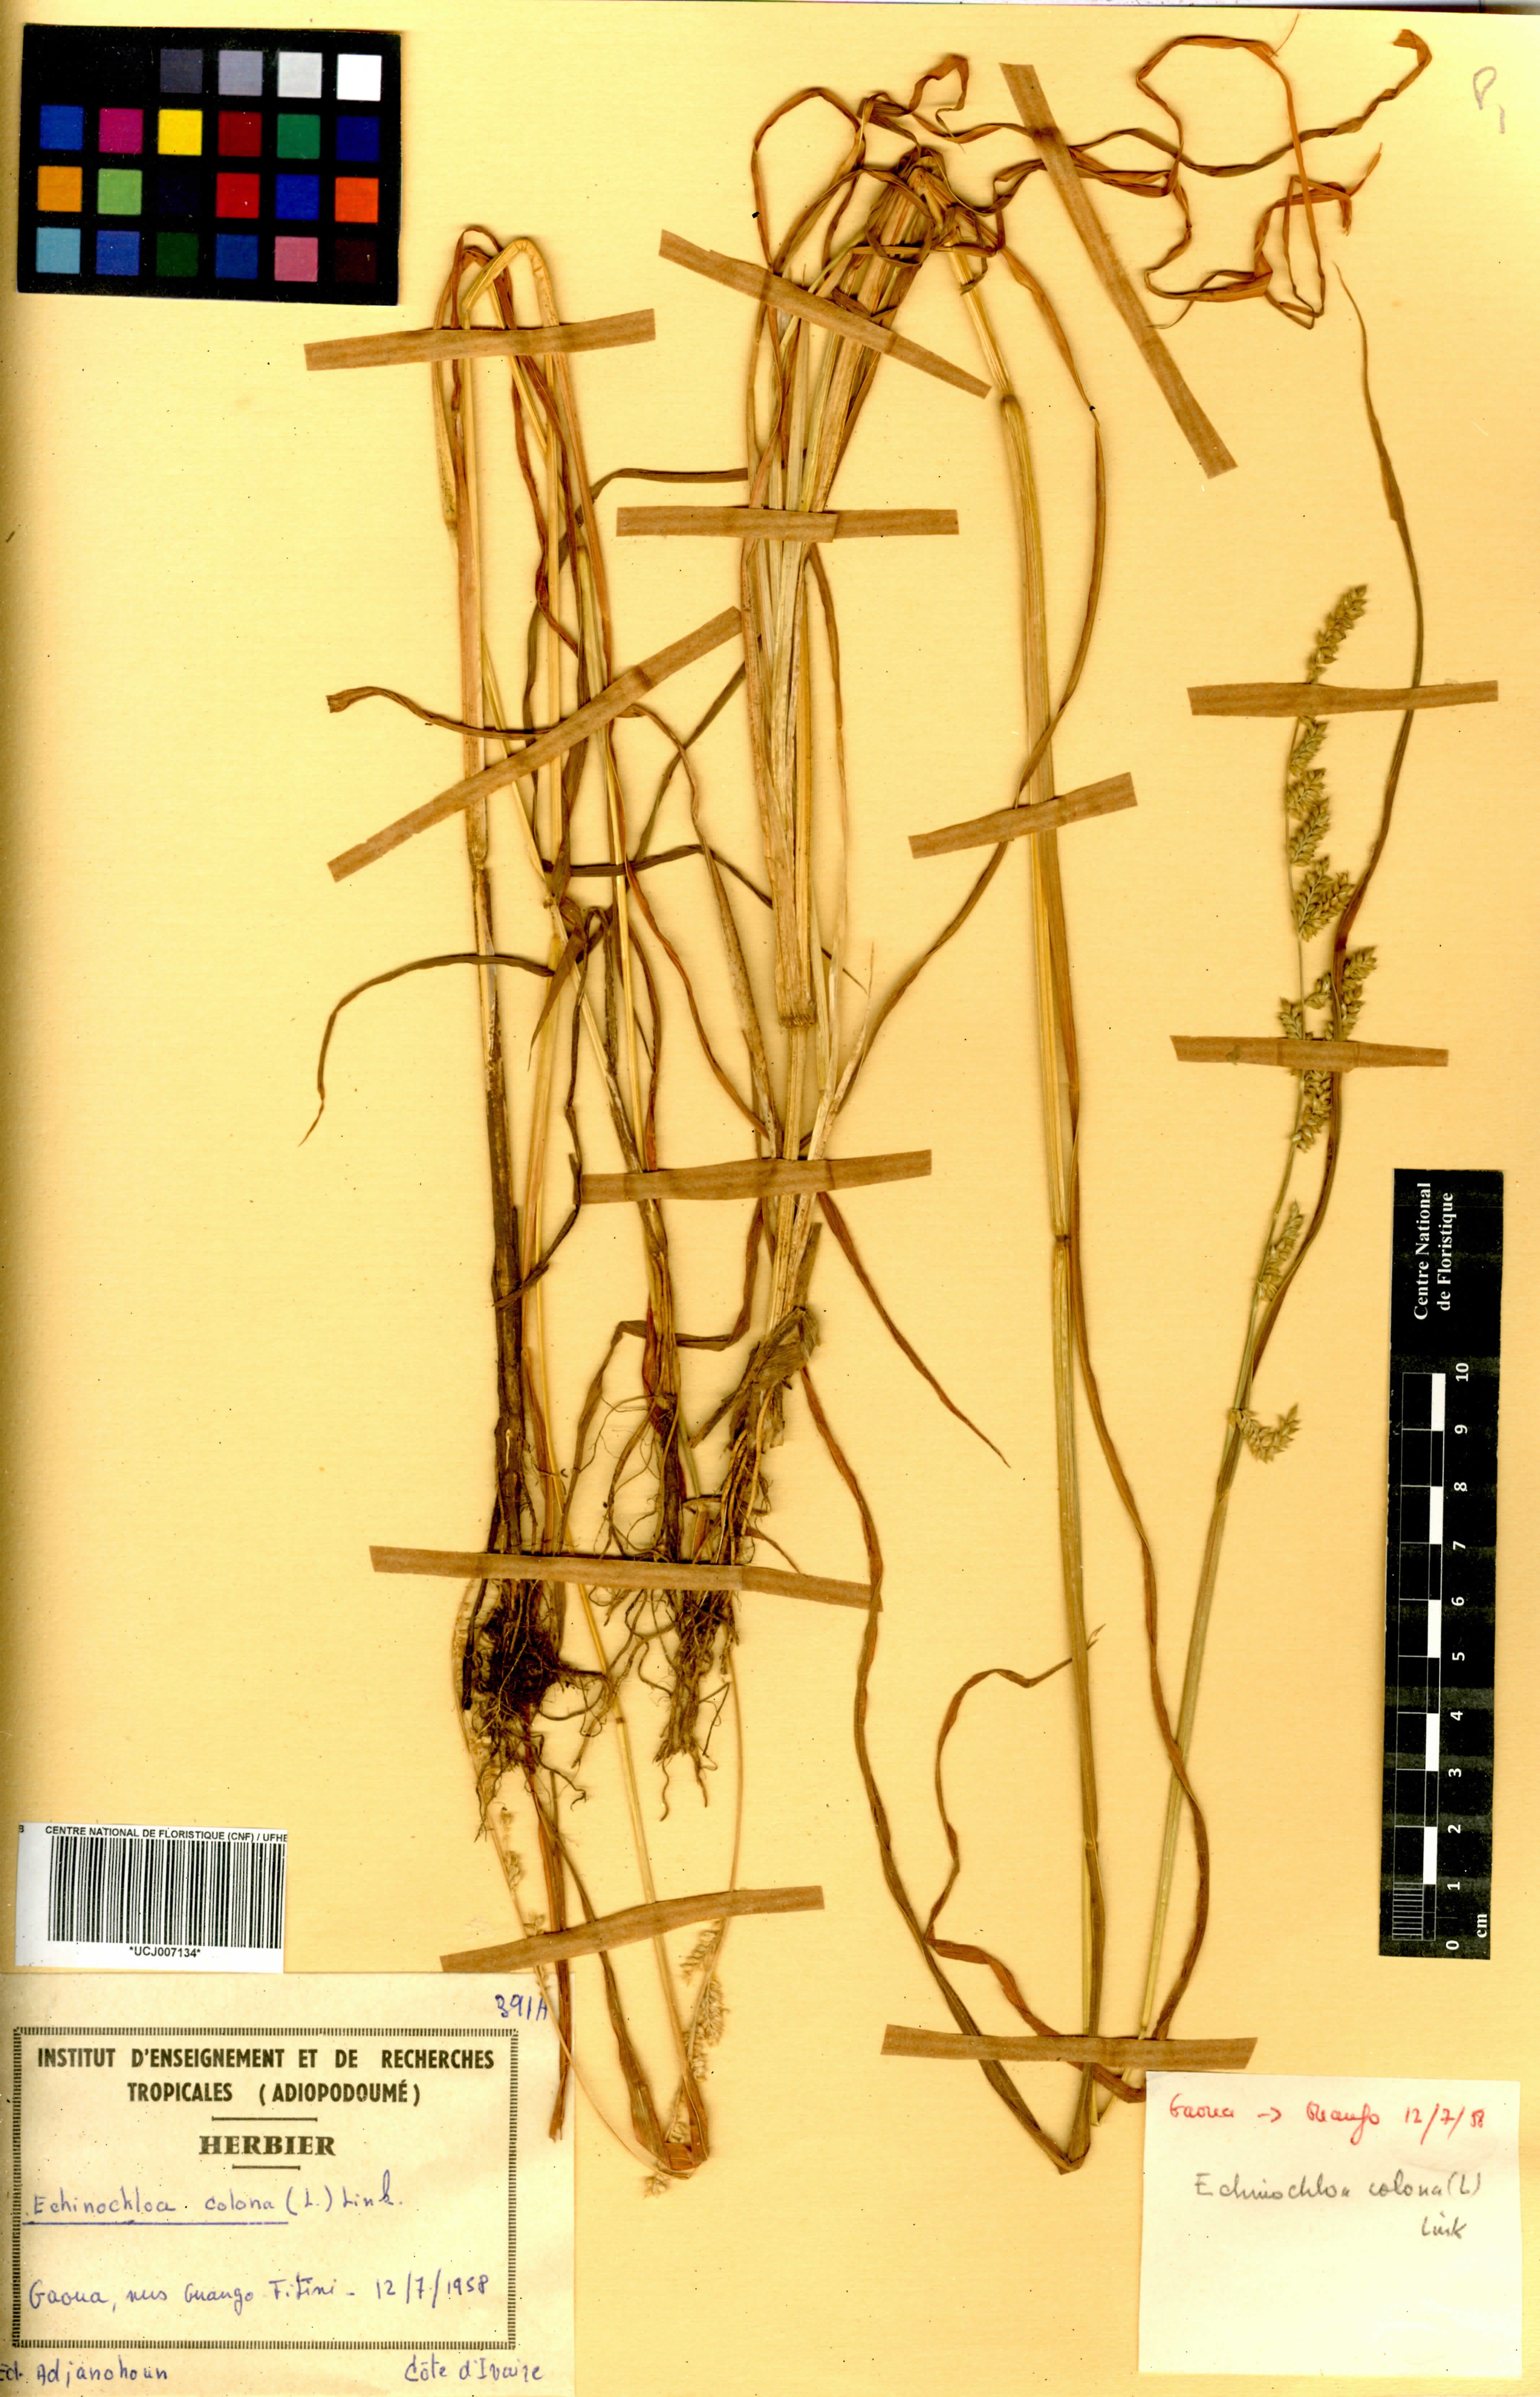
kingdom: Plantae
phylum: Tracheophyta
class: Liliopsida
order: Poales
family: Poaceae
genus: Echinochloa
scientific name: Echinochloa colonum
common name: Jungle rice
